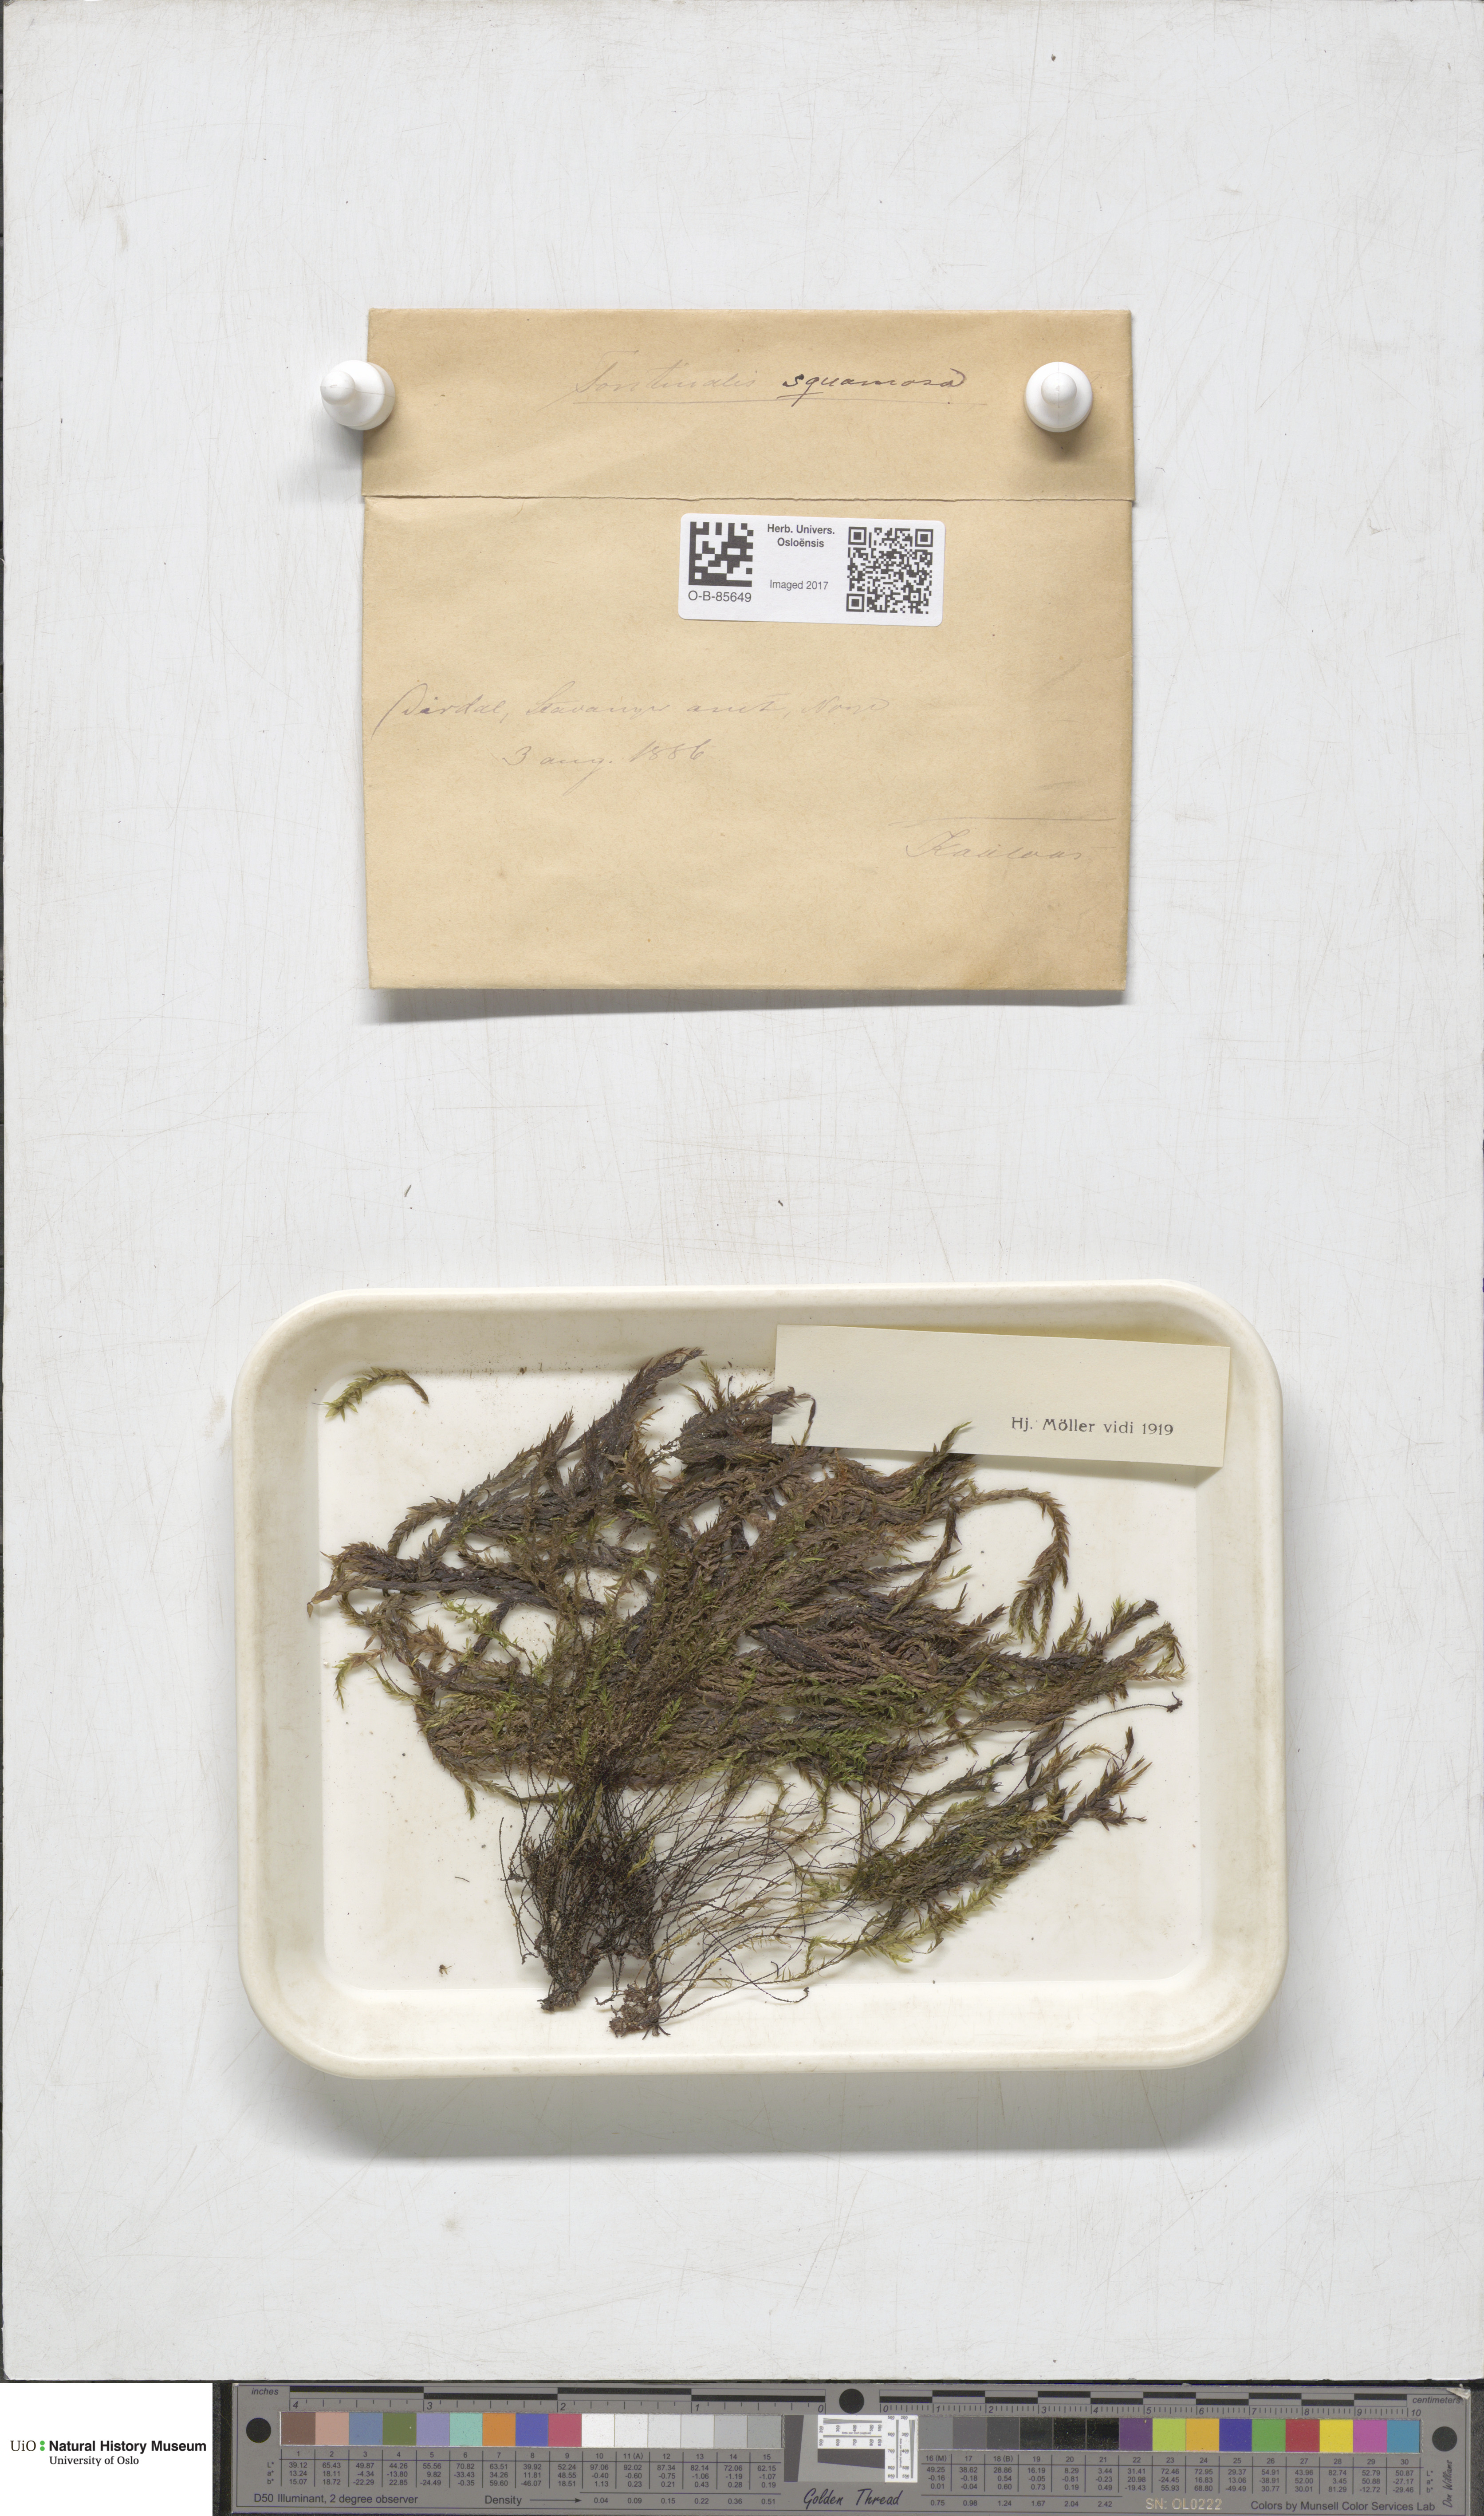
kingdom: Plantae
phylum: Bryophyta
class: Bryopsida
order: Hypnales
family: Fontinalaceae
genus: Fontinalis
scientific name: Fontinalis squamosa
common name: Alpine water-moss
